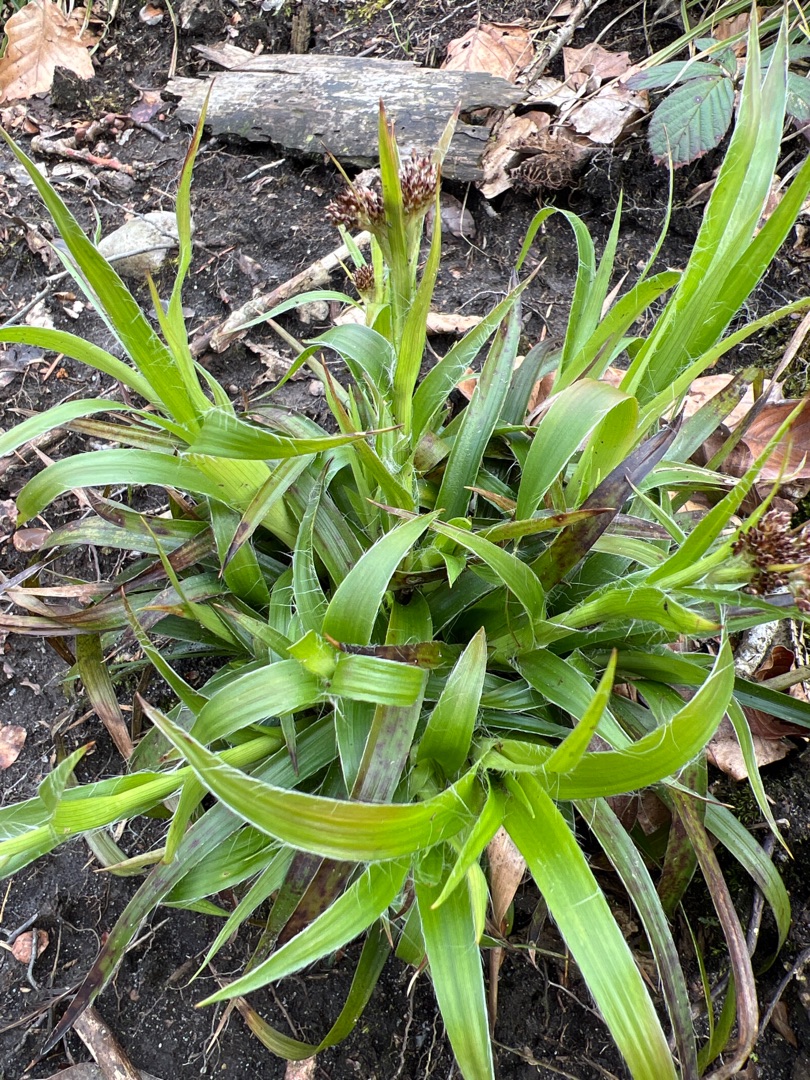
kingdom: Plantae
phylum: Tracheophyta
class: Liliopsida
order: Poales
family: Juncaceae
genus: Luzula
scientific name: Luzula sylvatica
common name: Stor frytle
